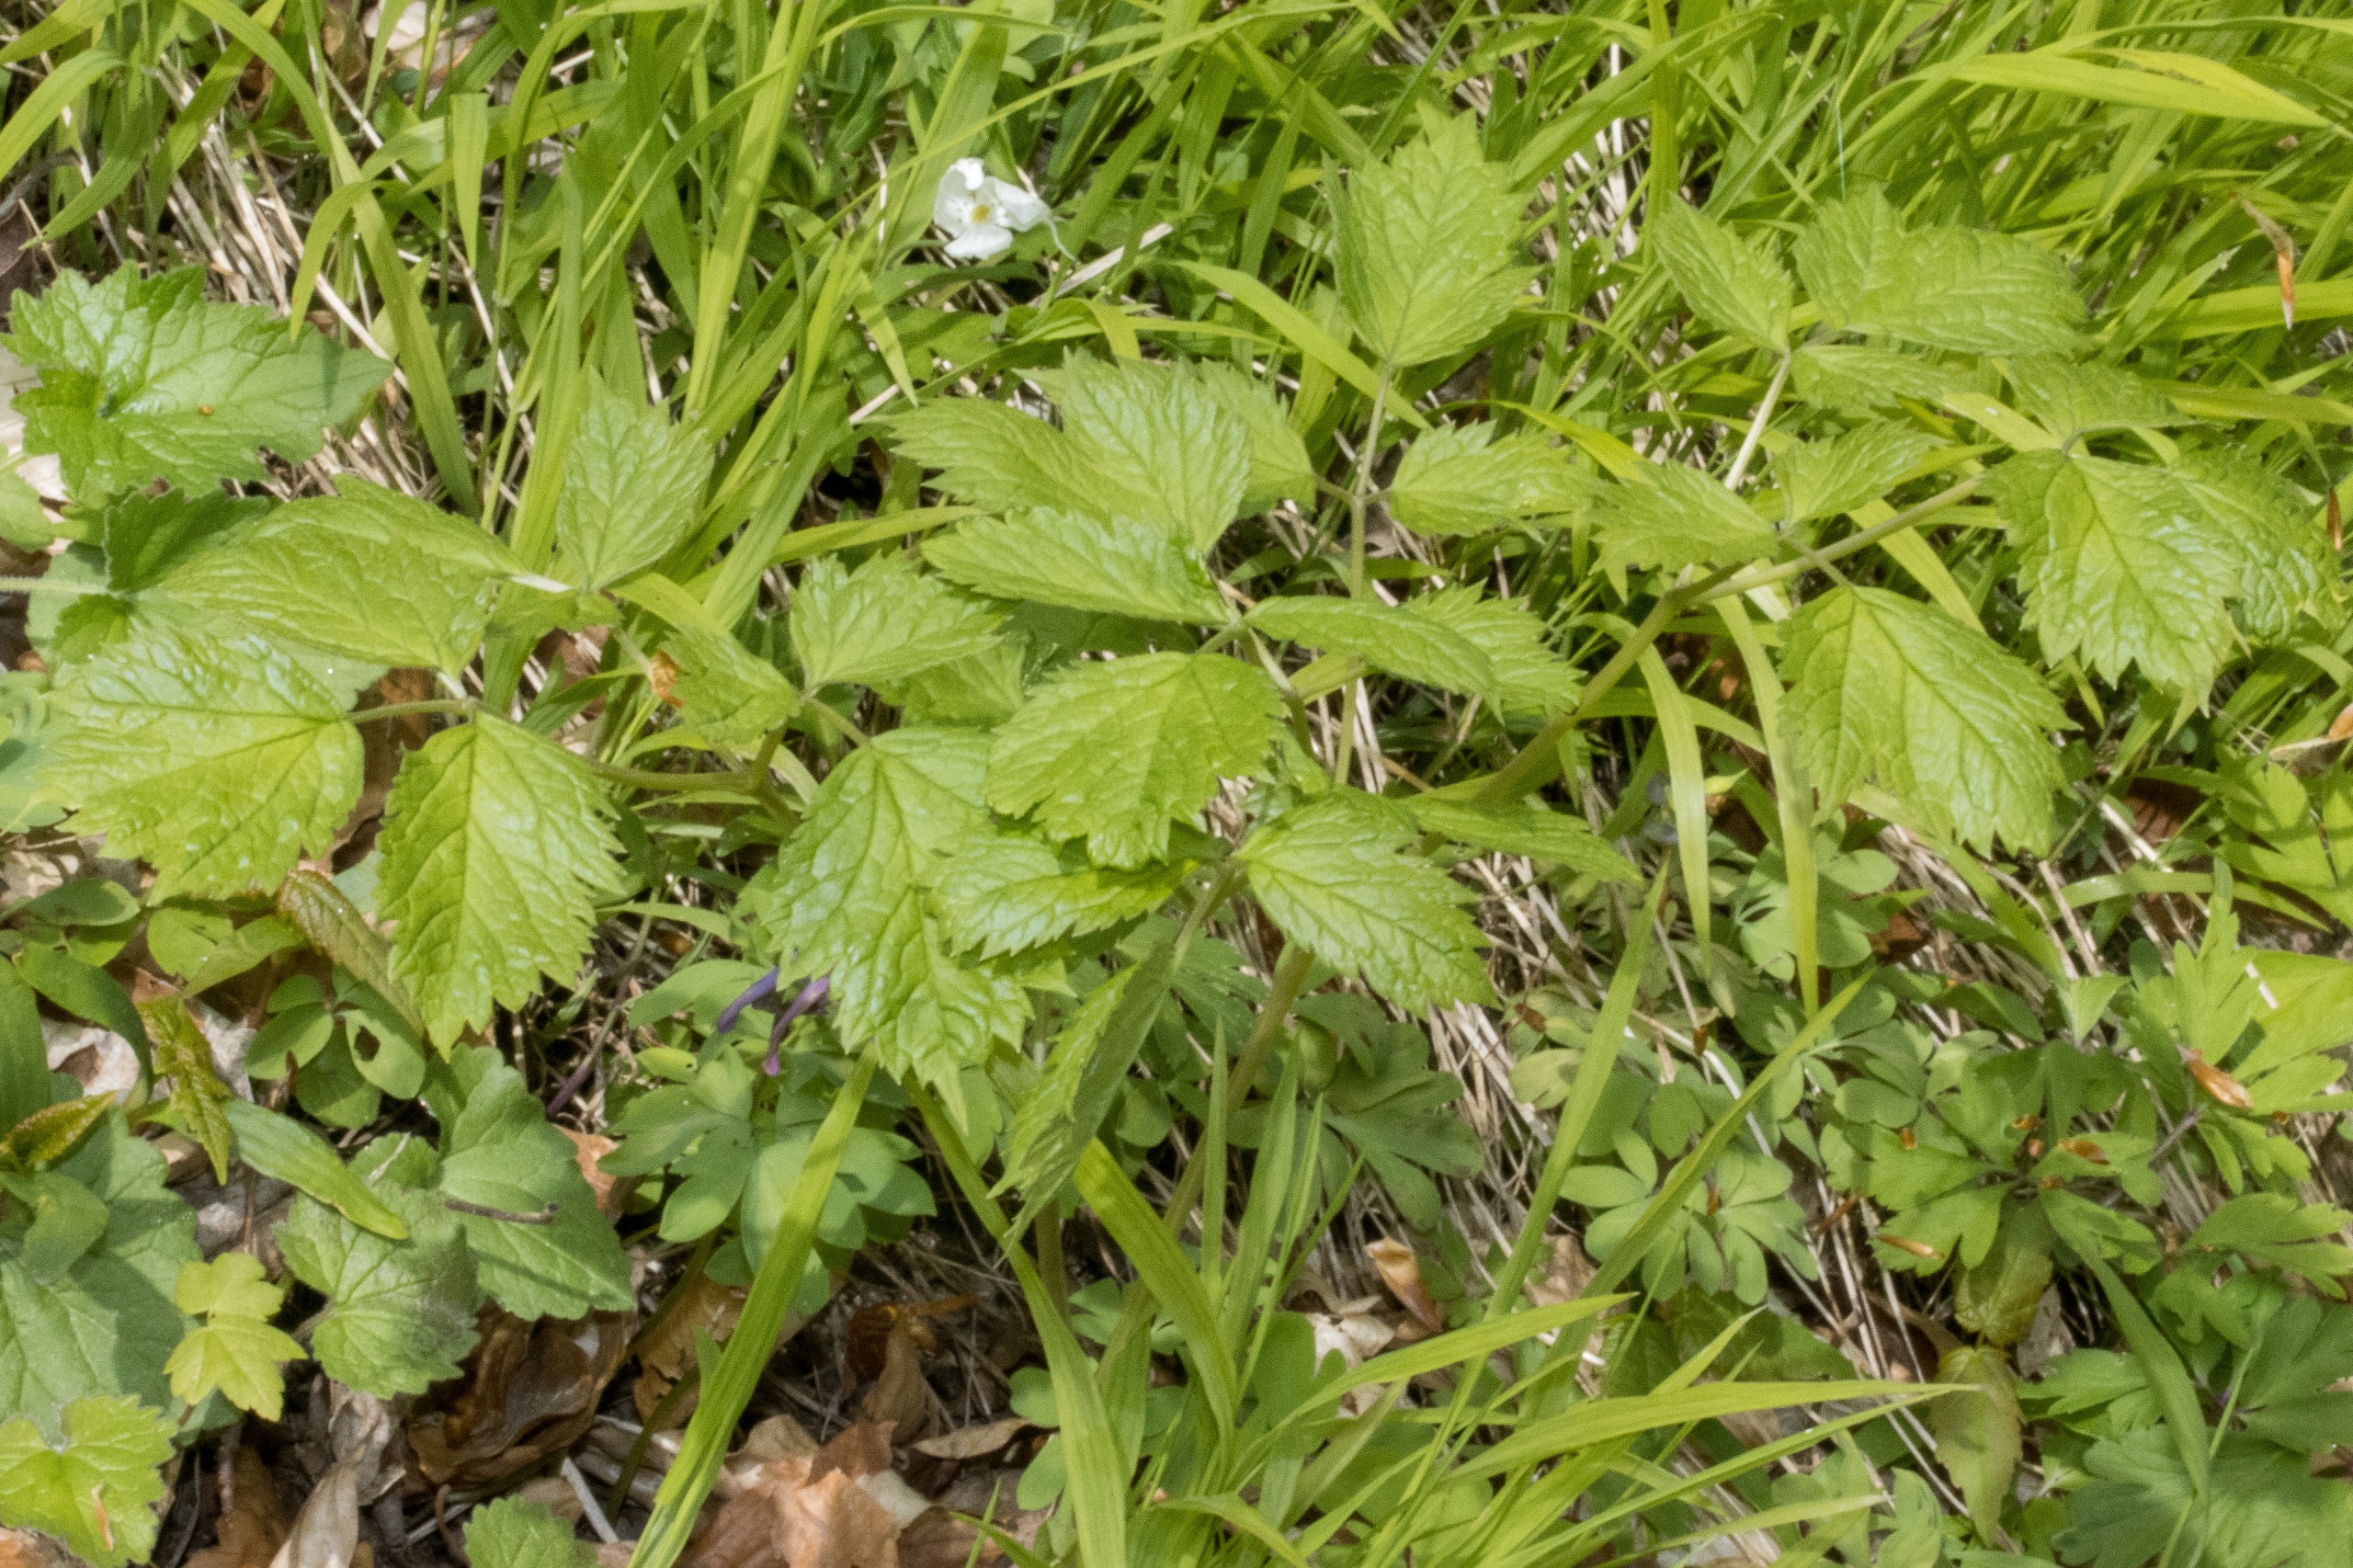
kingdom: Plantae
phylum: Tracheophyta
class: Magnoliopsida
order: Ranunculales
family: Ranunculaceae
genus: Actaea
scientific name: Actaea spicata
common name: Druemunke
